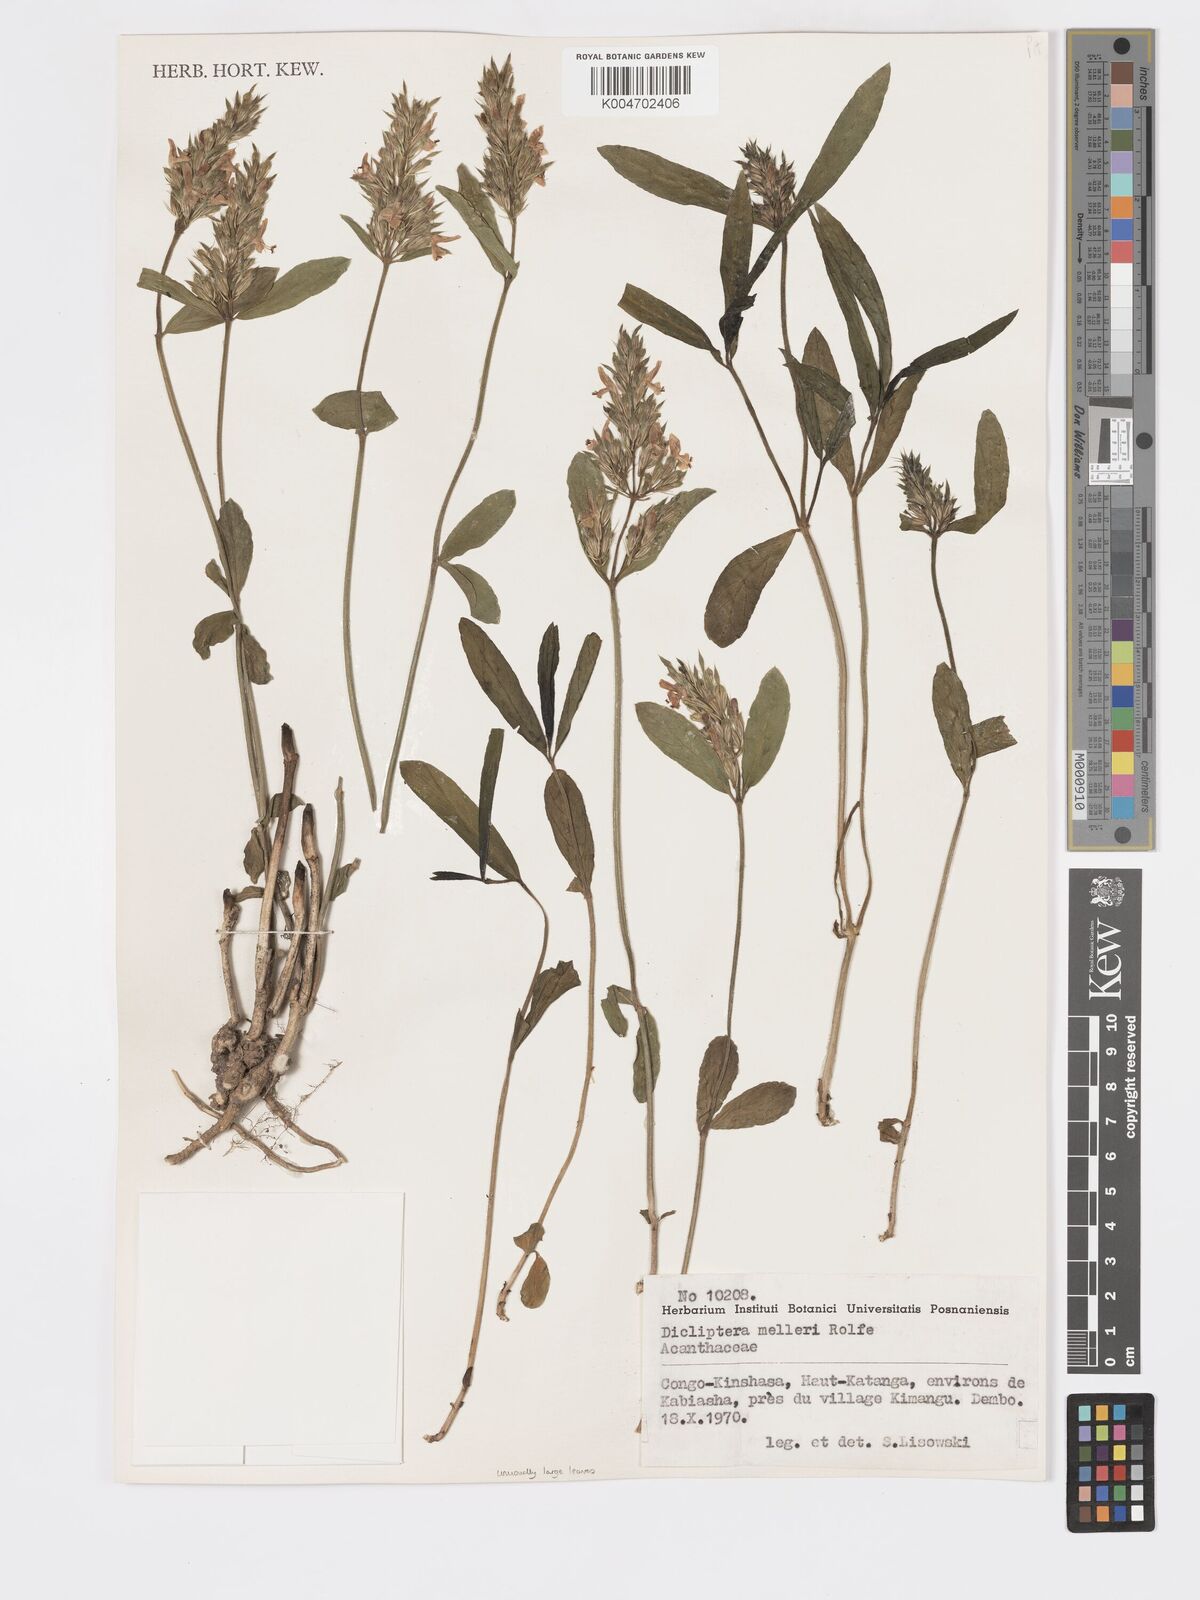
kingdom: Plantae
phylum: Tracheophyta
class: Magnoliopsida
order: Lamiales
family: Acanthaceae
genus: Dicliptera
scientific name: Dicliptera melleri
